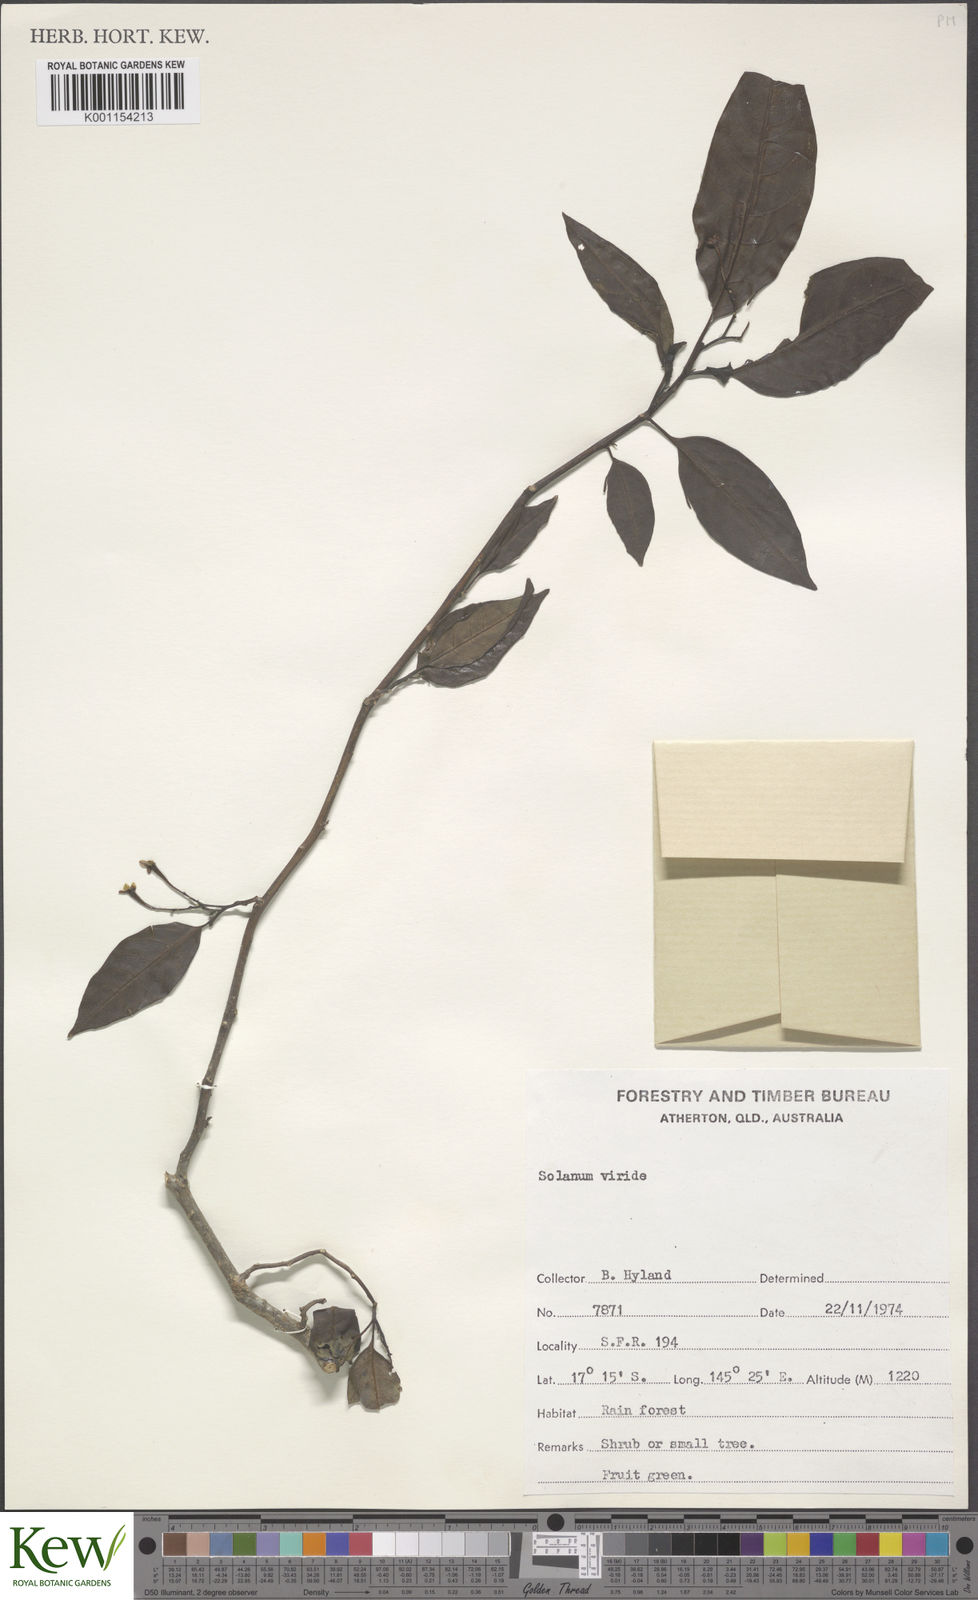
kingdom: Plantae
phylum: Tracheophyta
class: Magnoliopsida
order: Solanales
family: Solanaceae
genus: Solanum
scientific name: Solanum viridifolium
